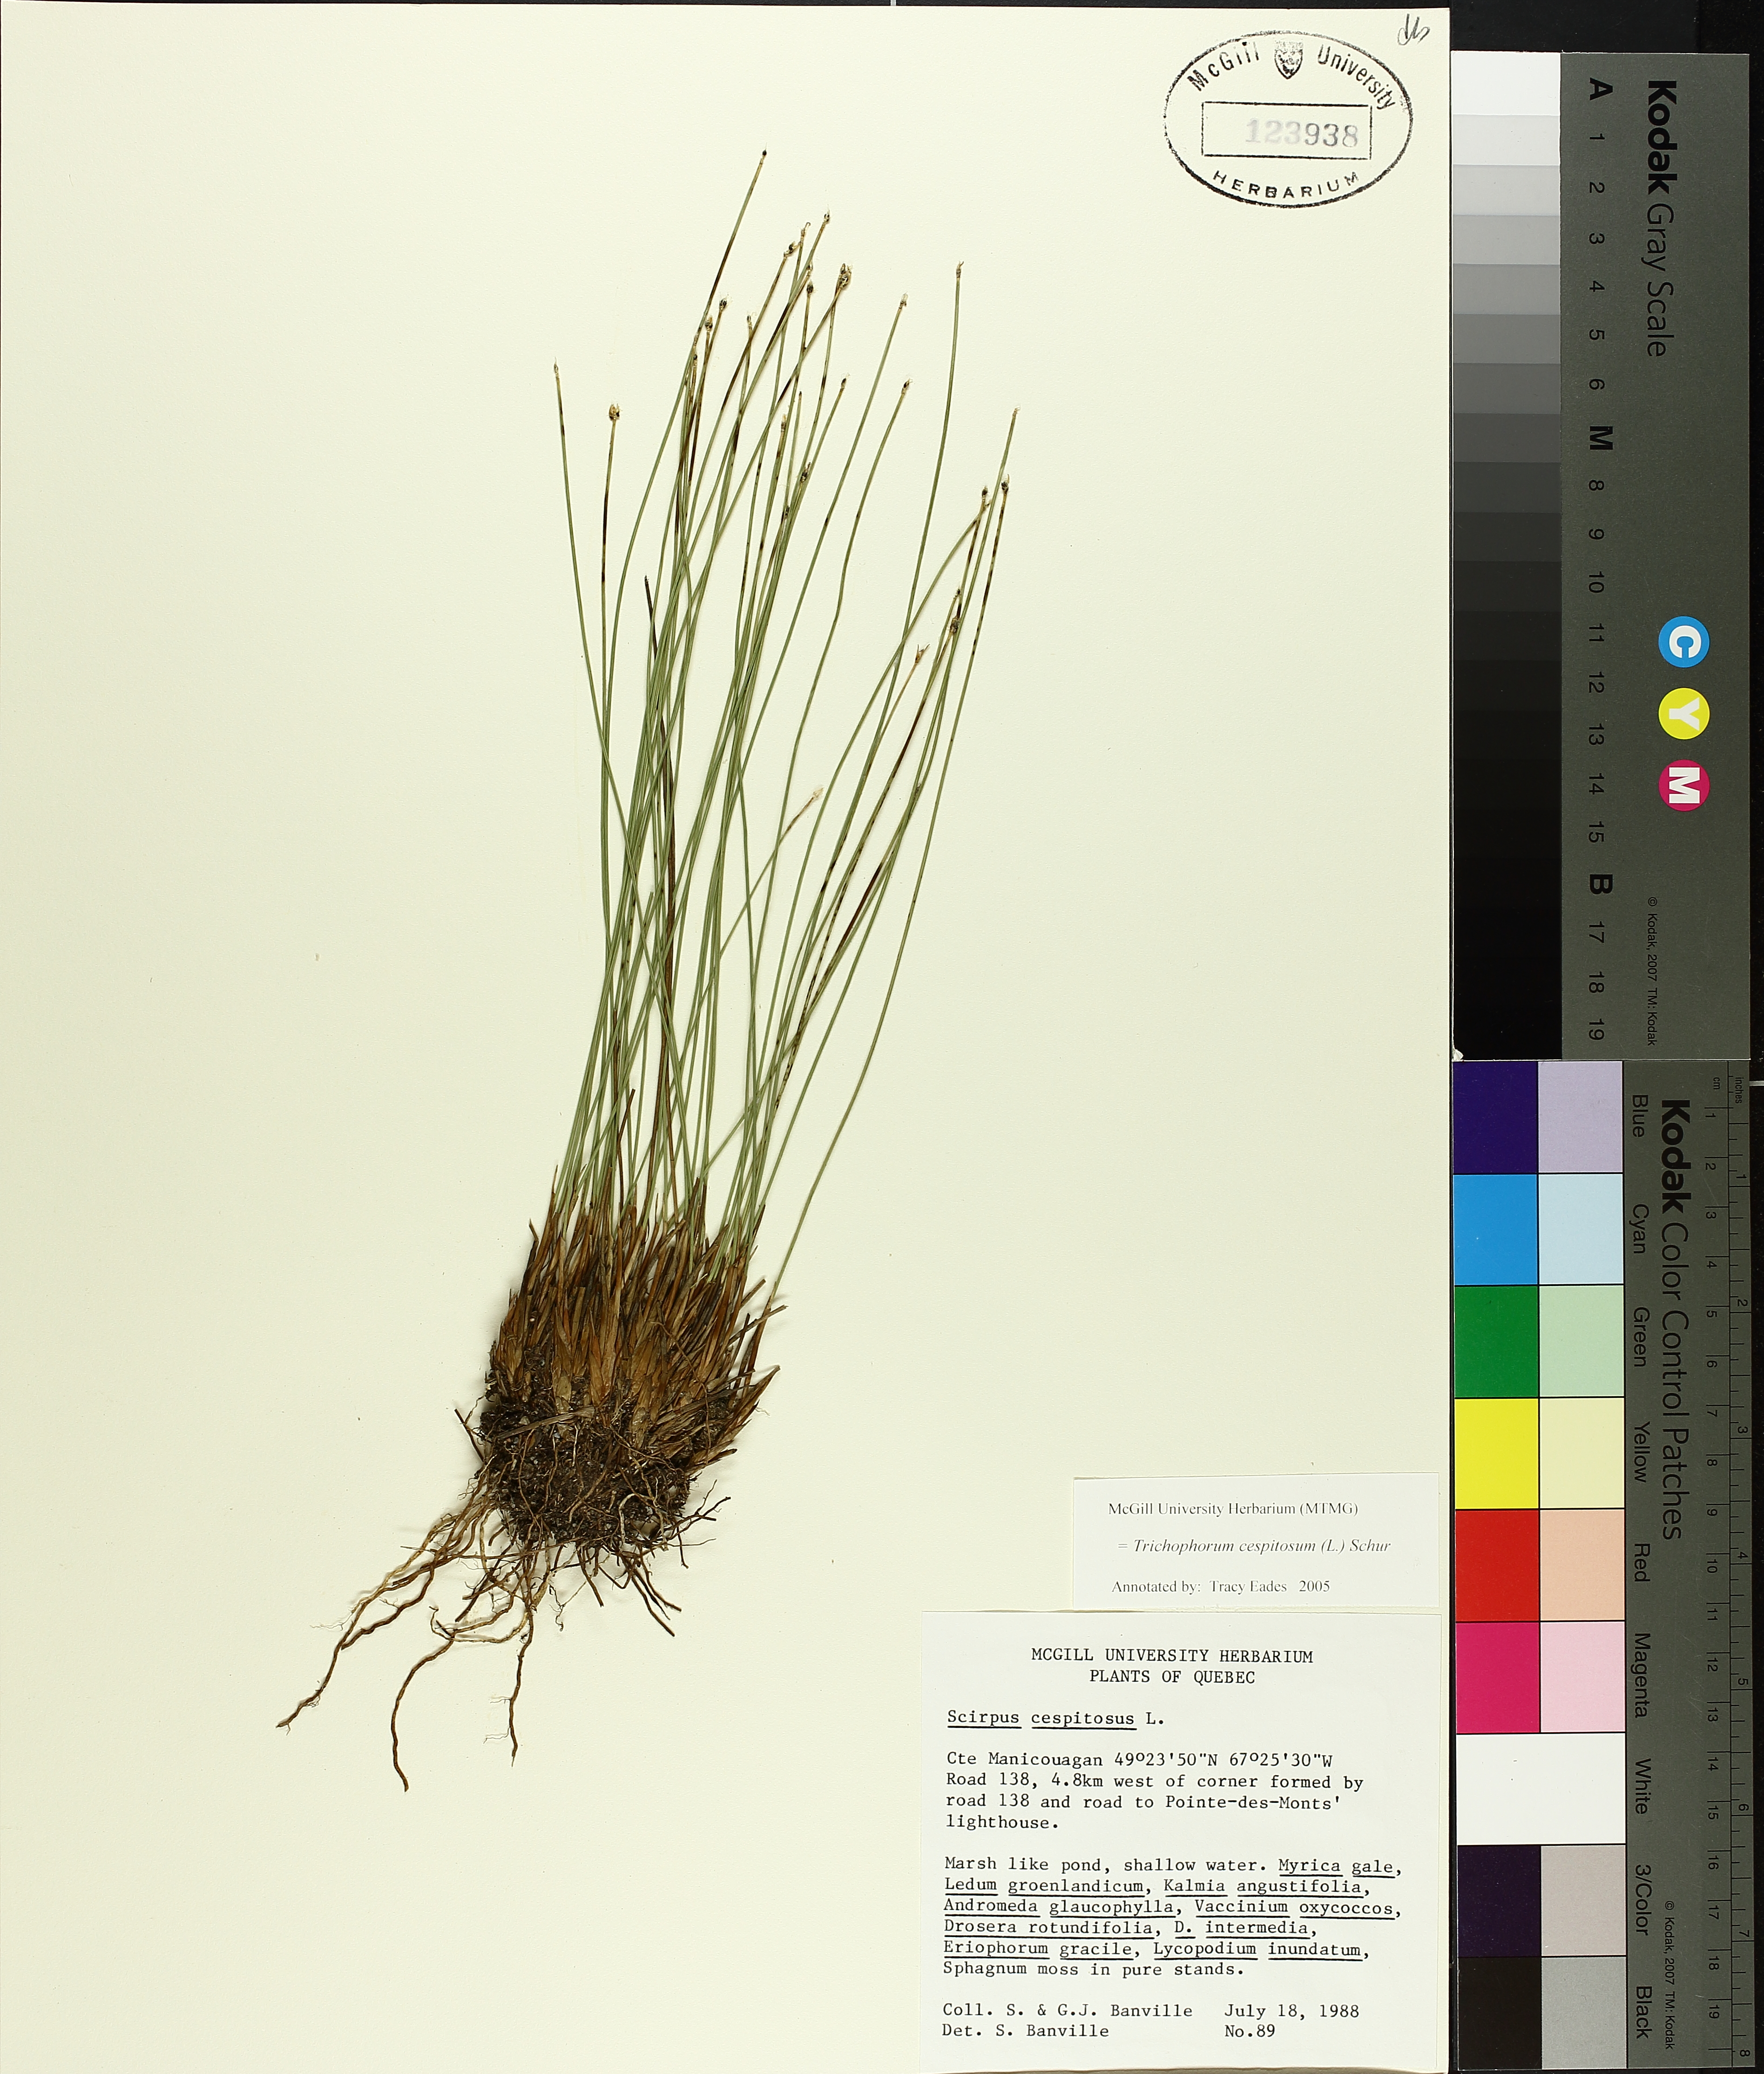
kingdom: Plantae
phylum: Tracheophyta
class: Liliopsida
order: Poales
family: Cyperaceae
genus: Trichophorum
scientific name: Trichophorum cespitosum
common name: Cespitose bulrush
